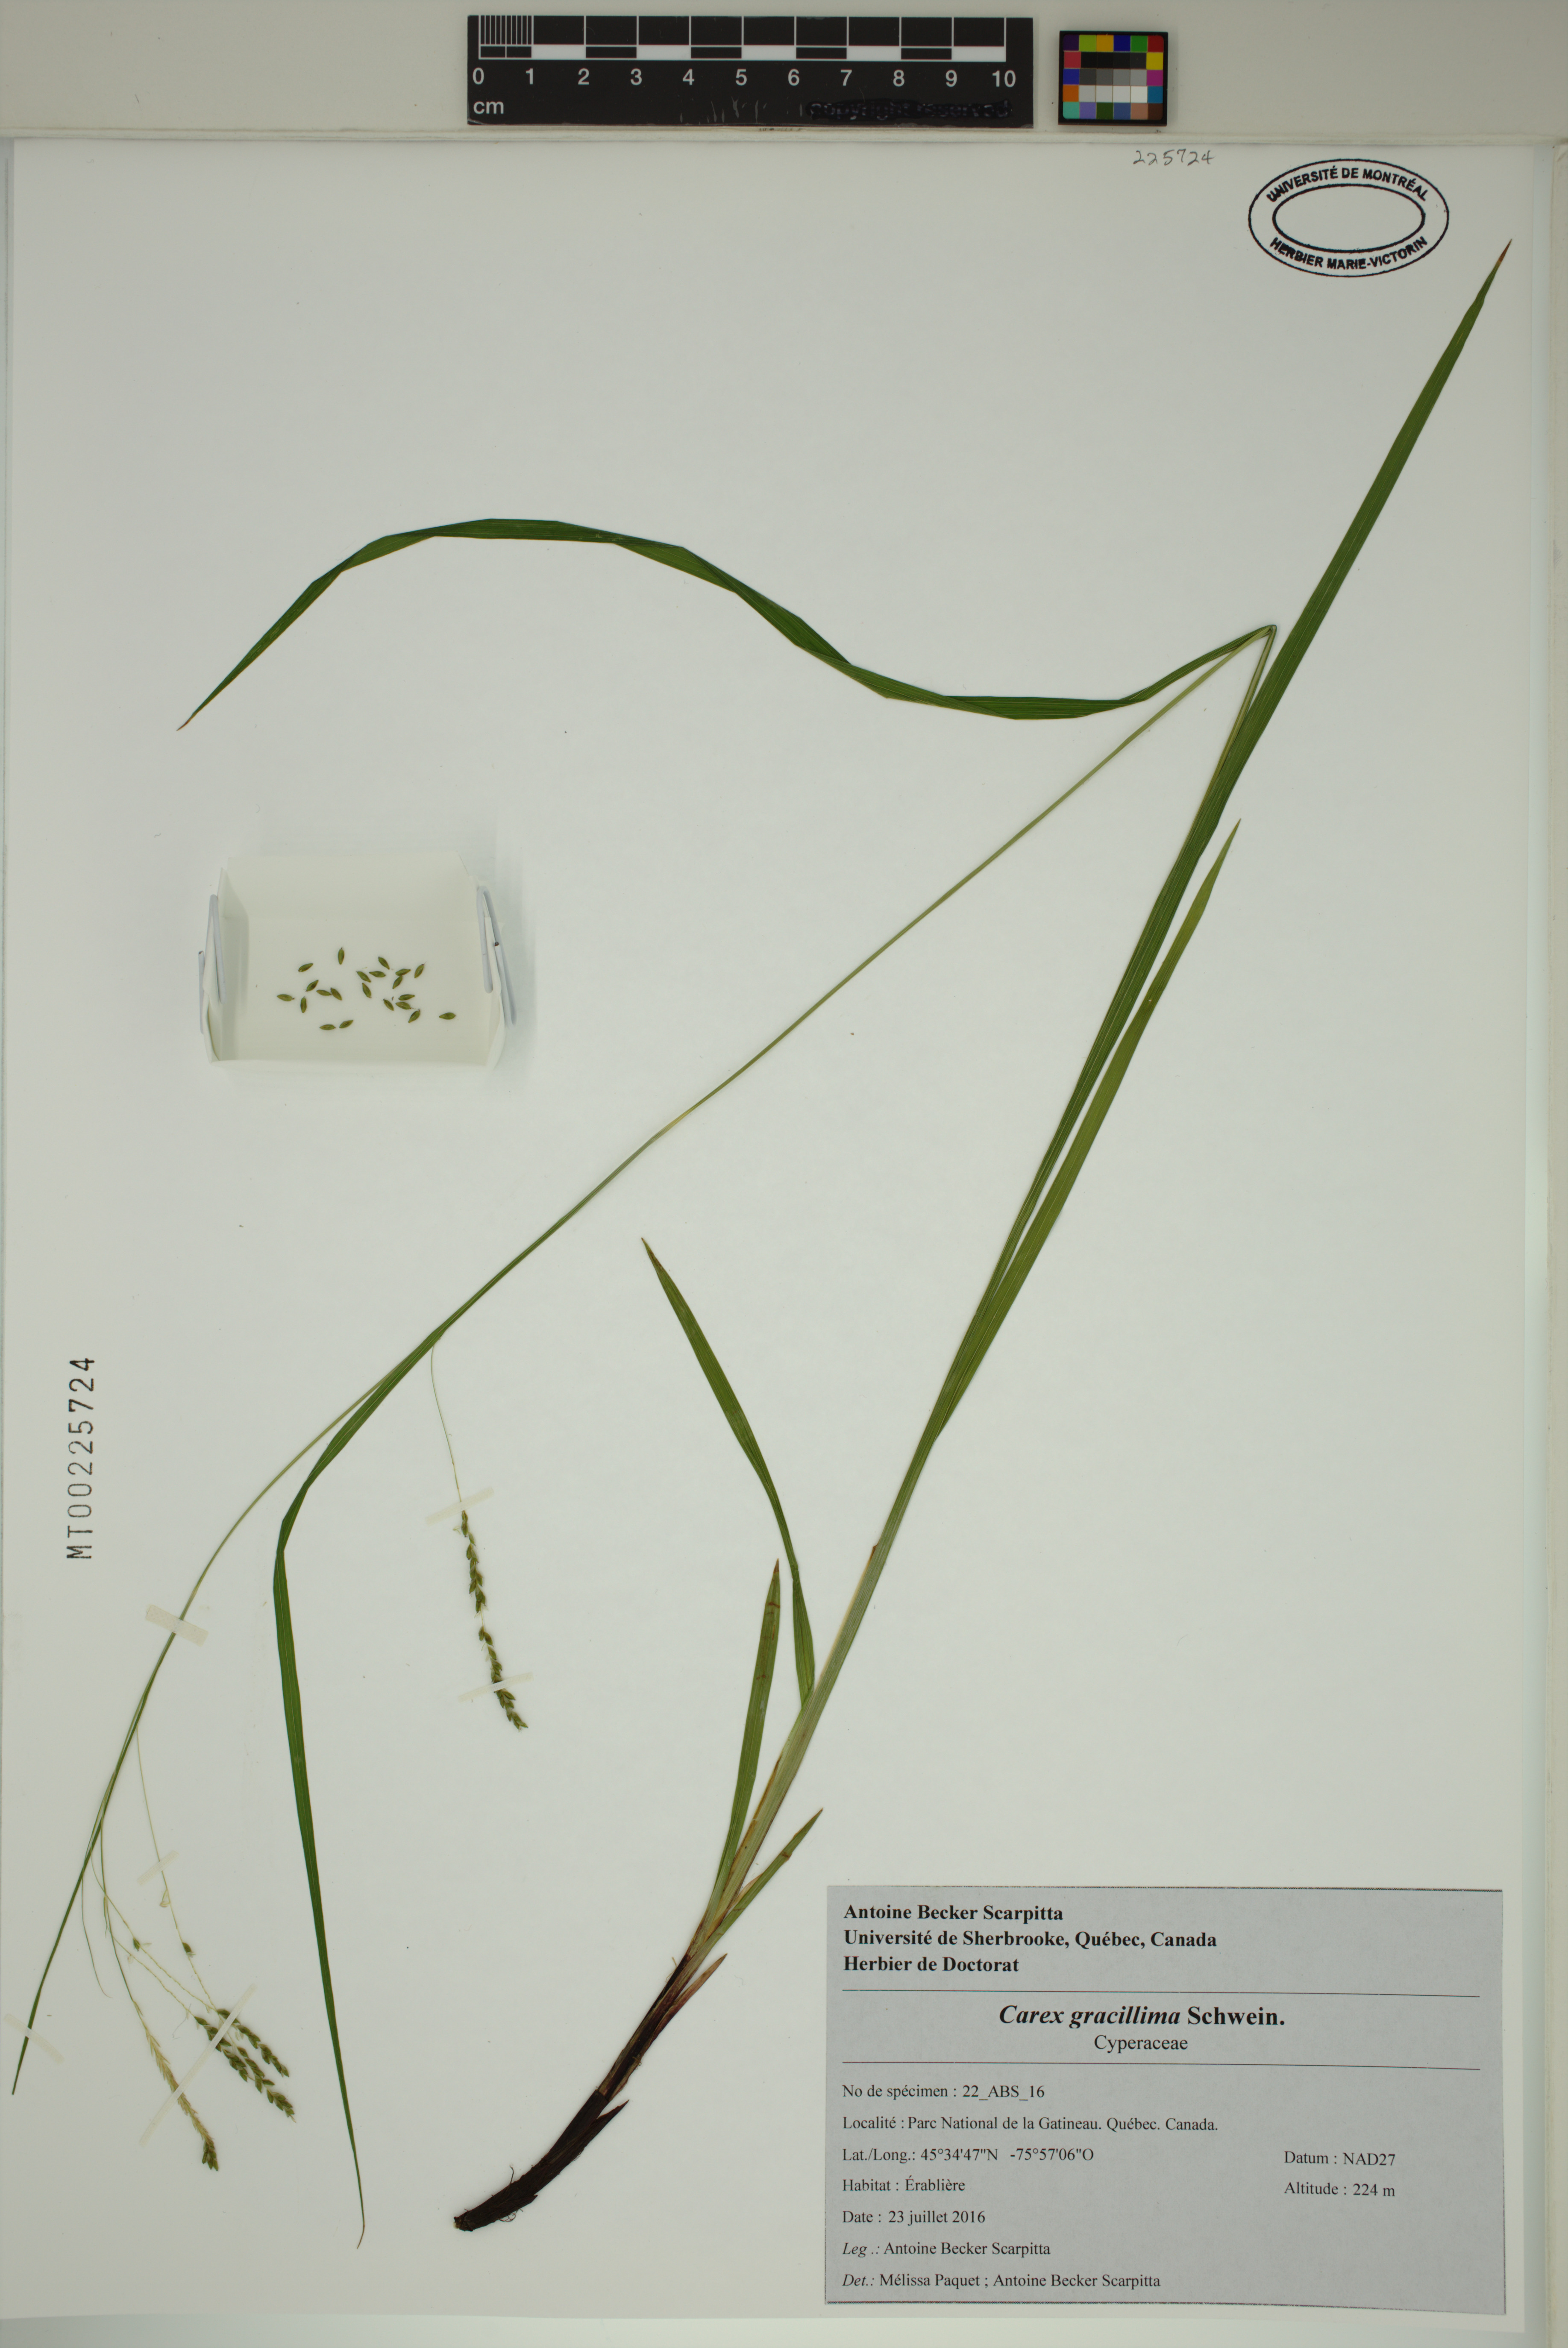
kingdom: Plantae
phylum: Tracheophyta
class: Liliopsida
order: Poales
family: Cyperaceae
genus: Carex
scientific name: Carex gracillima
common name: Graceful sedge
